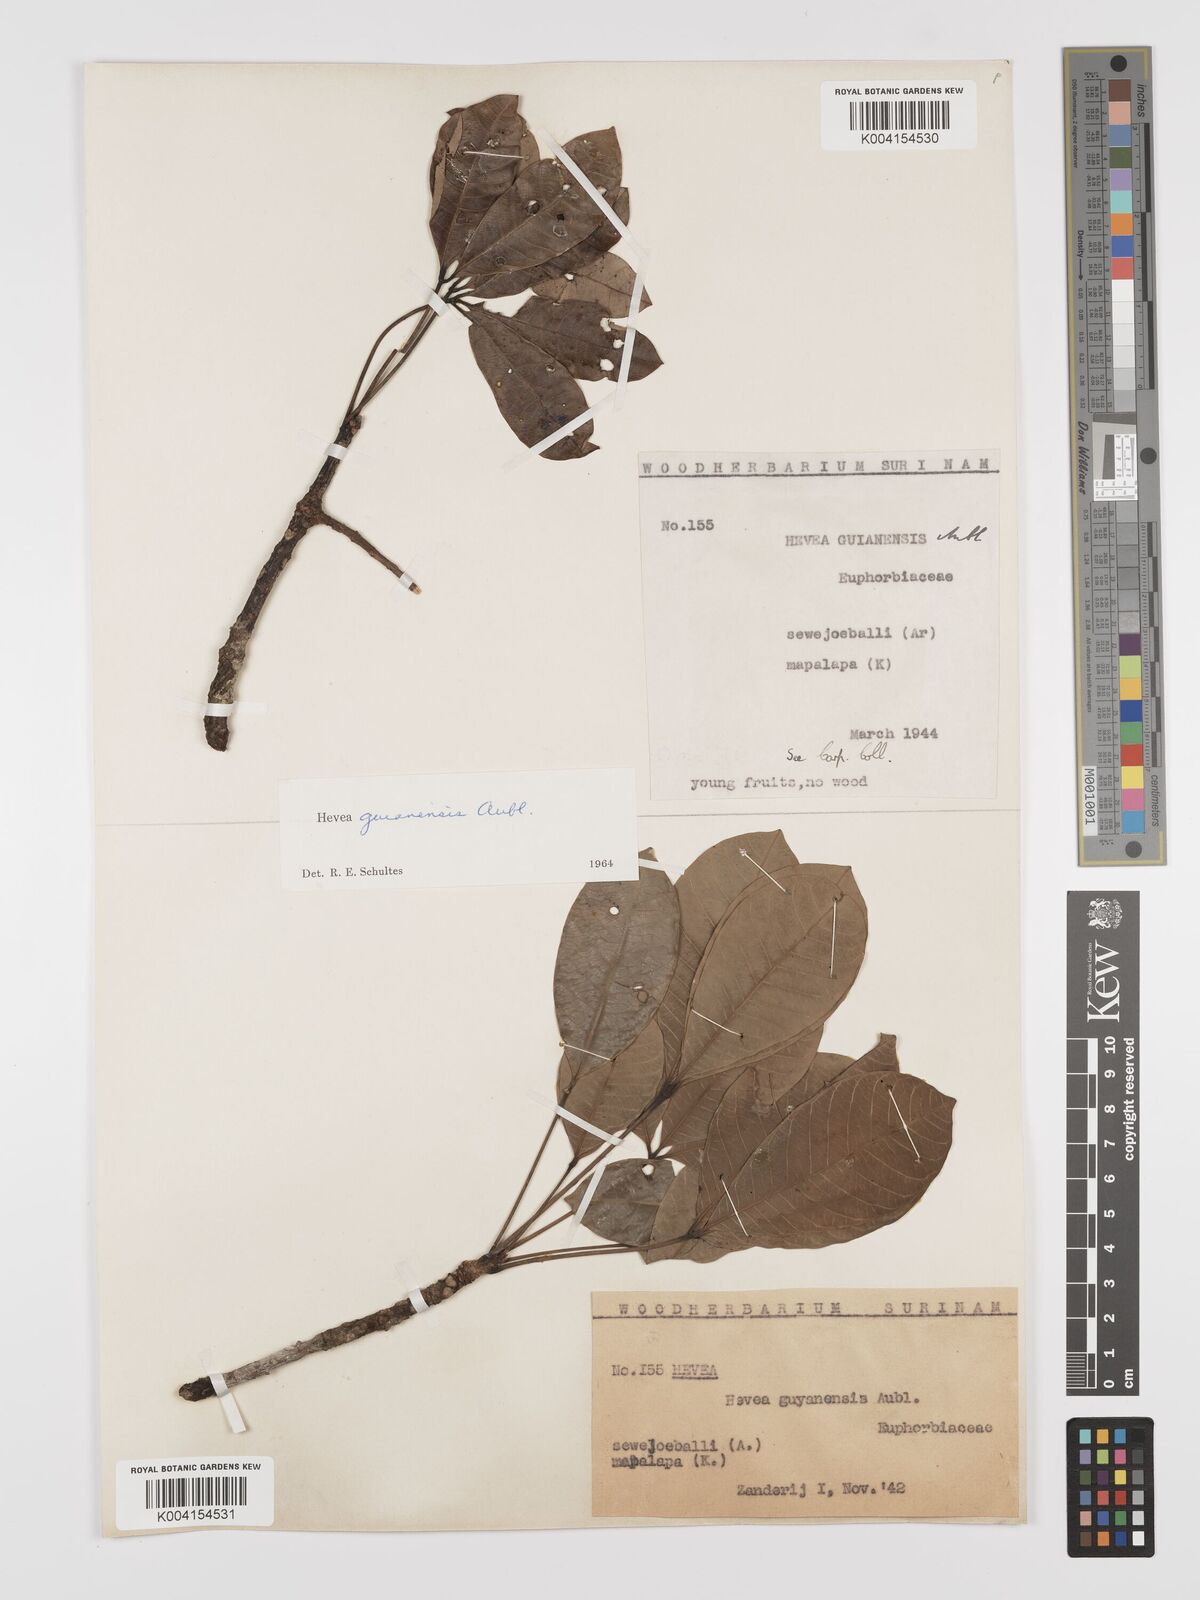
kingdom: Plantae
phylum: Tracheophyta
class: Magnoliopsida
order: Malpighiales
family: Euphorbiaceae
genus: Hevea
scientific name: Hevea guianensis
